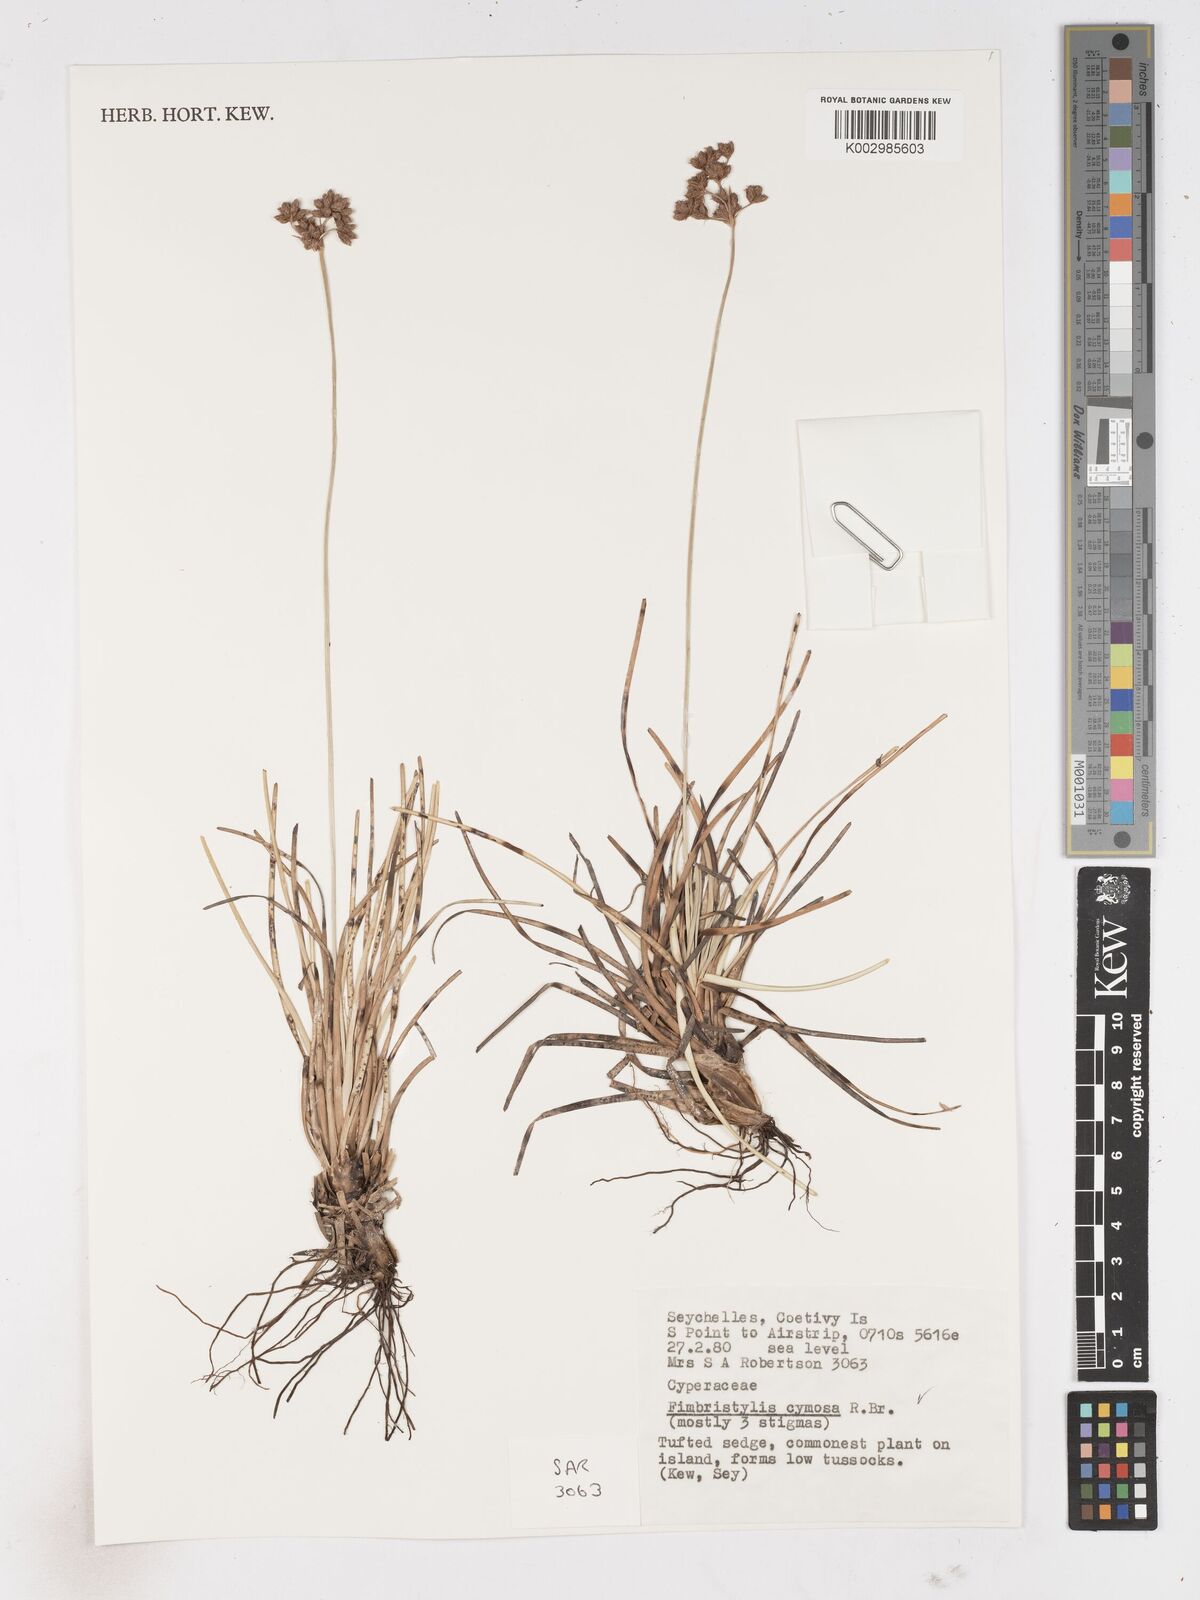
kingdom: Plantae
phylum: Tracheophyta
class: Liliopsida
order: Poales
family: Cyperaceae
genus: Fimbristylis
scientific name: Fimbristylis cymosa
